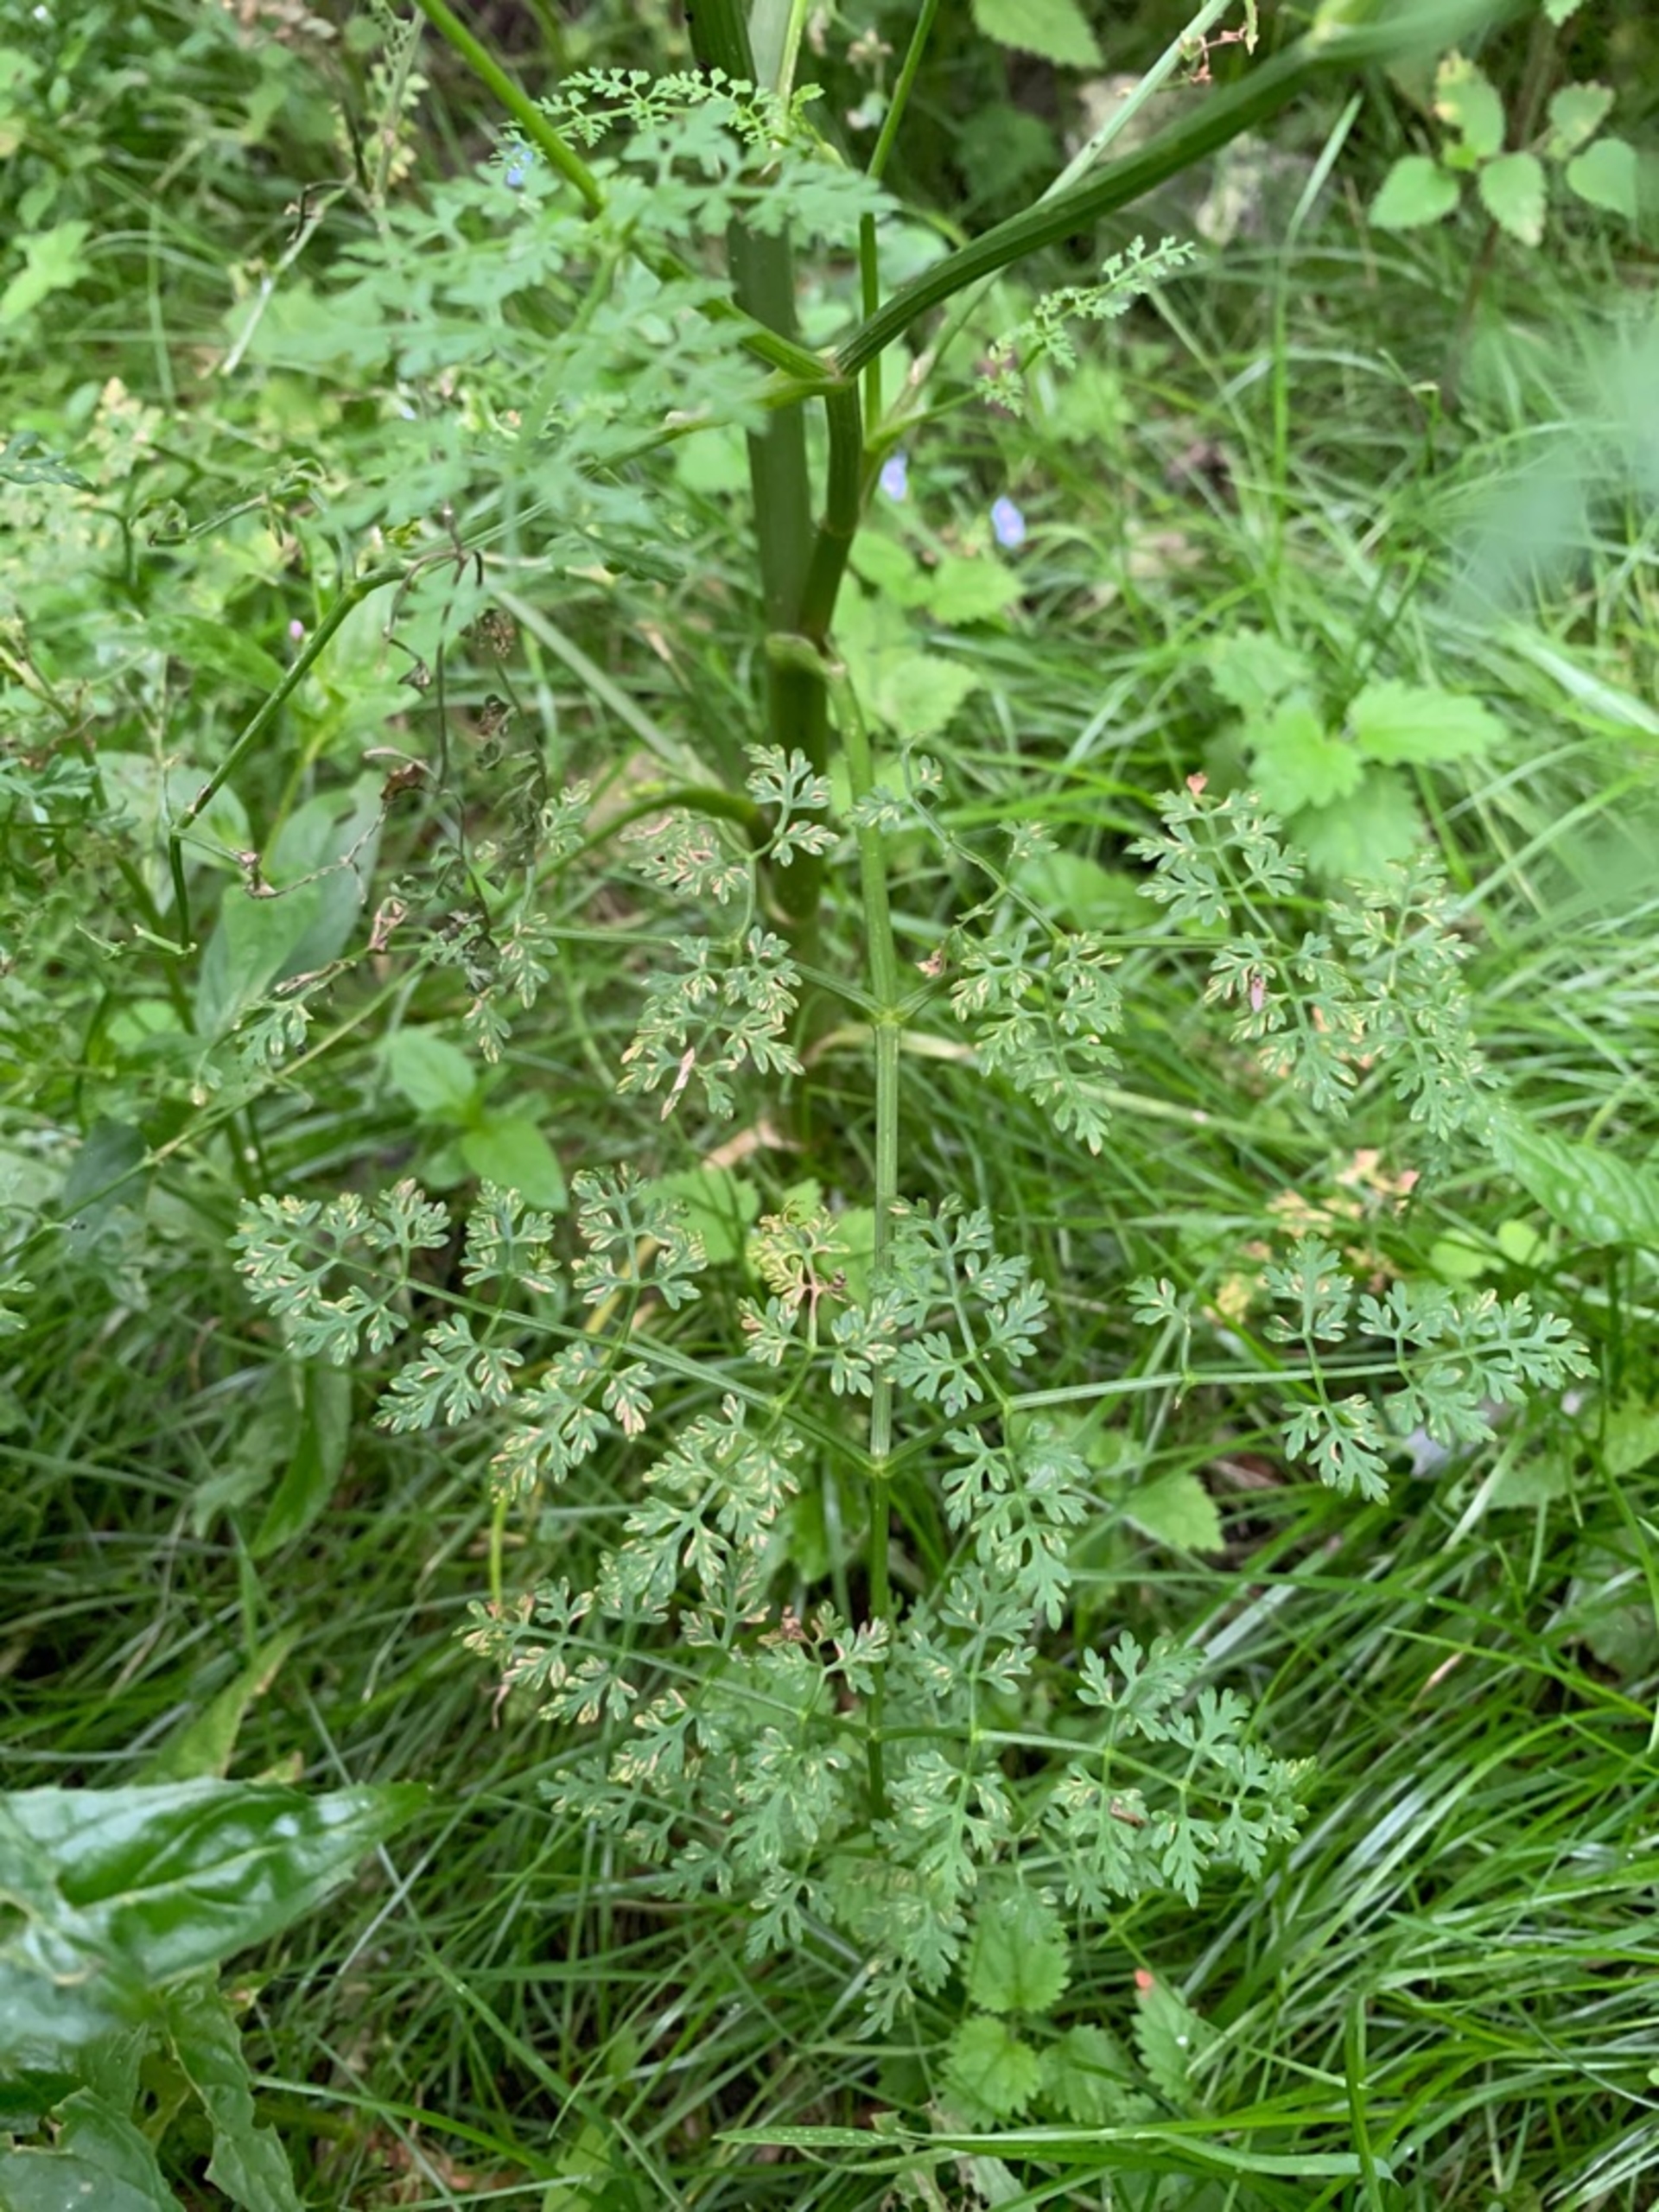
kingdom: Plantae
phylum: Tracheophyta
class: Magnoliopsida
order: Apiales
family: Apiaceae
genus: Oenanthe
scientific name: Oenanthe aquatica
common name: Billebo-klaseskærm
